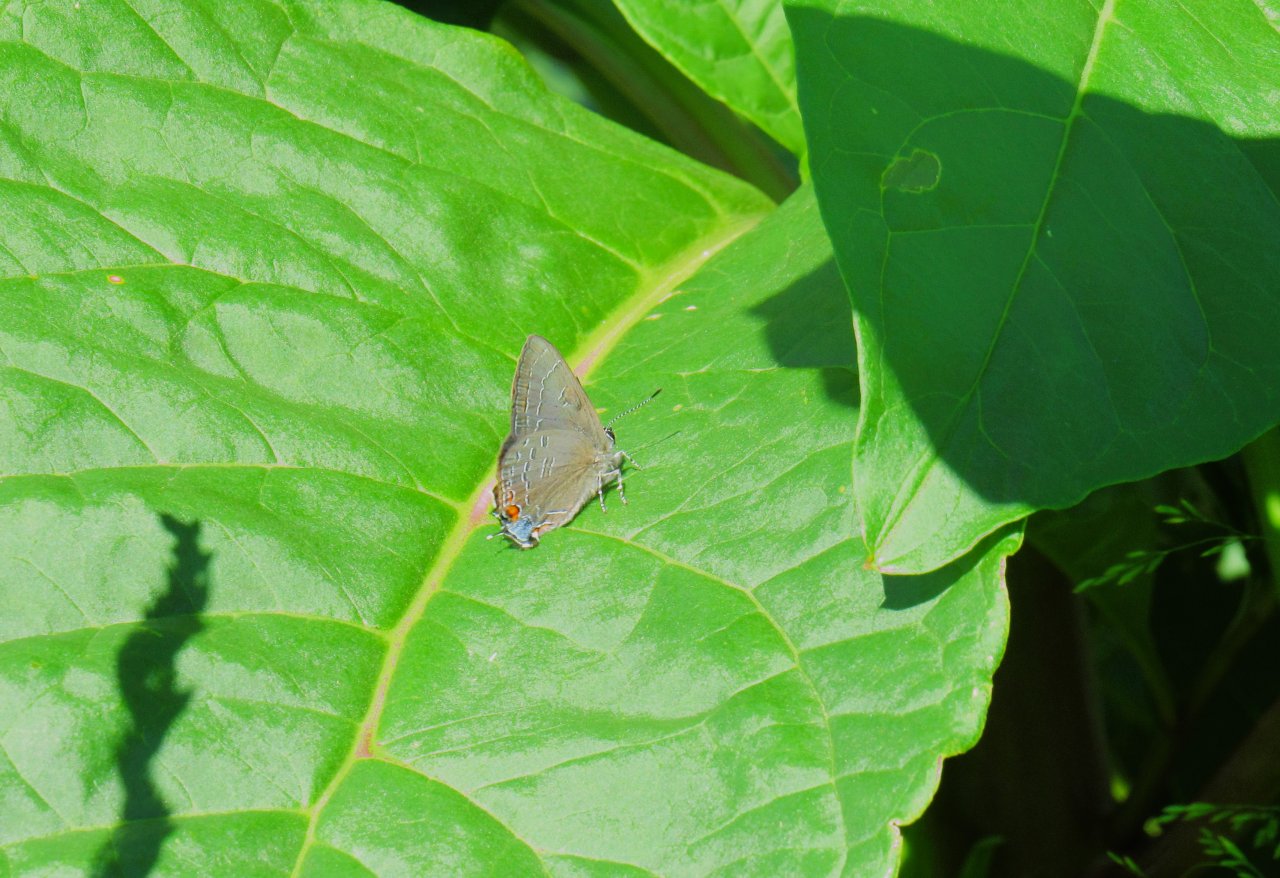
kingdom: Animalia
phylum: Arthropoda
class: Insecta
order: Lepidoptera
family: Lycaenidae
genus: Satyrium
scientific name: Satyrium calanus
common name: Banded Hairstreak
